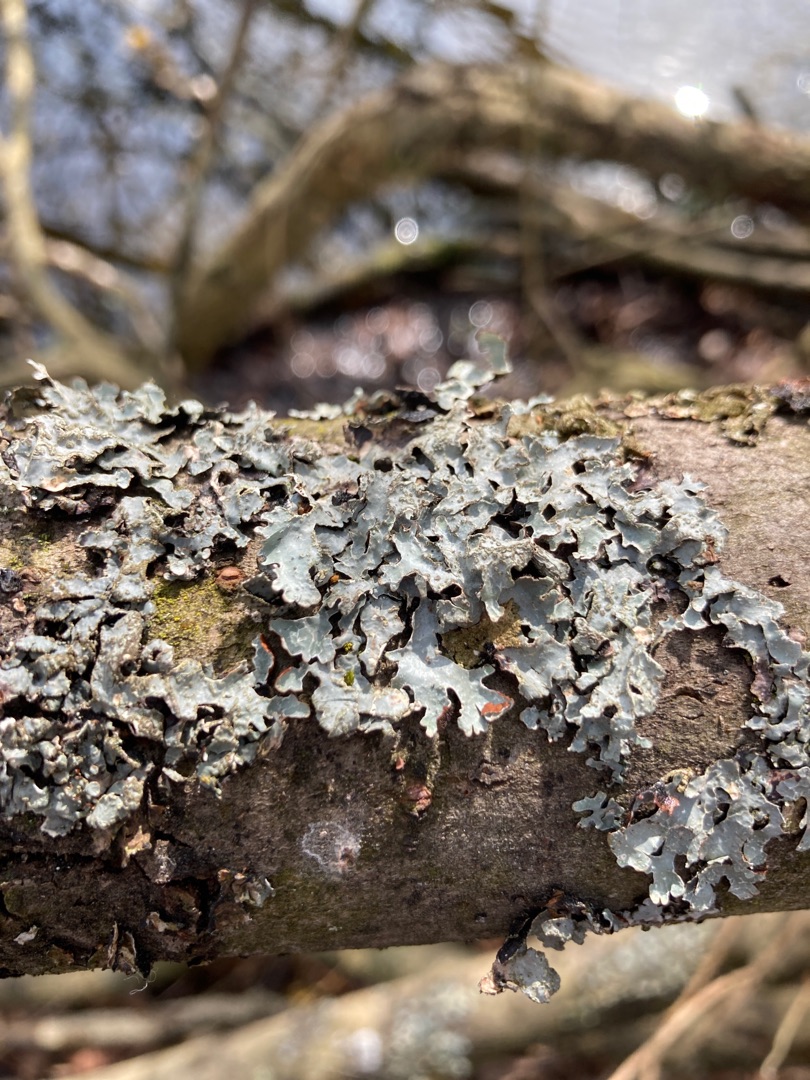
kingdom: Fungi
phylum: Ascomycota
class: Lecanoromycetes
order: Lecanorales
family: Parmeliaceae
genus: Parmelia
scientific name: Parmelia sulcata
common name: Rynket skållav
